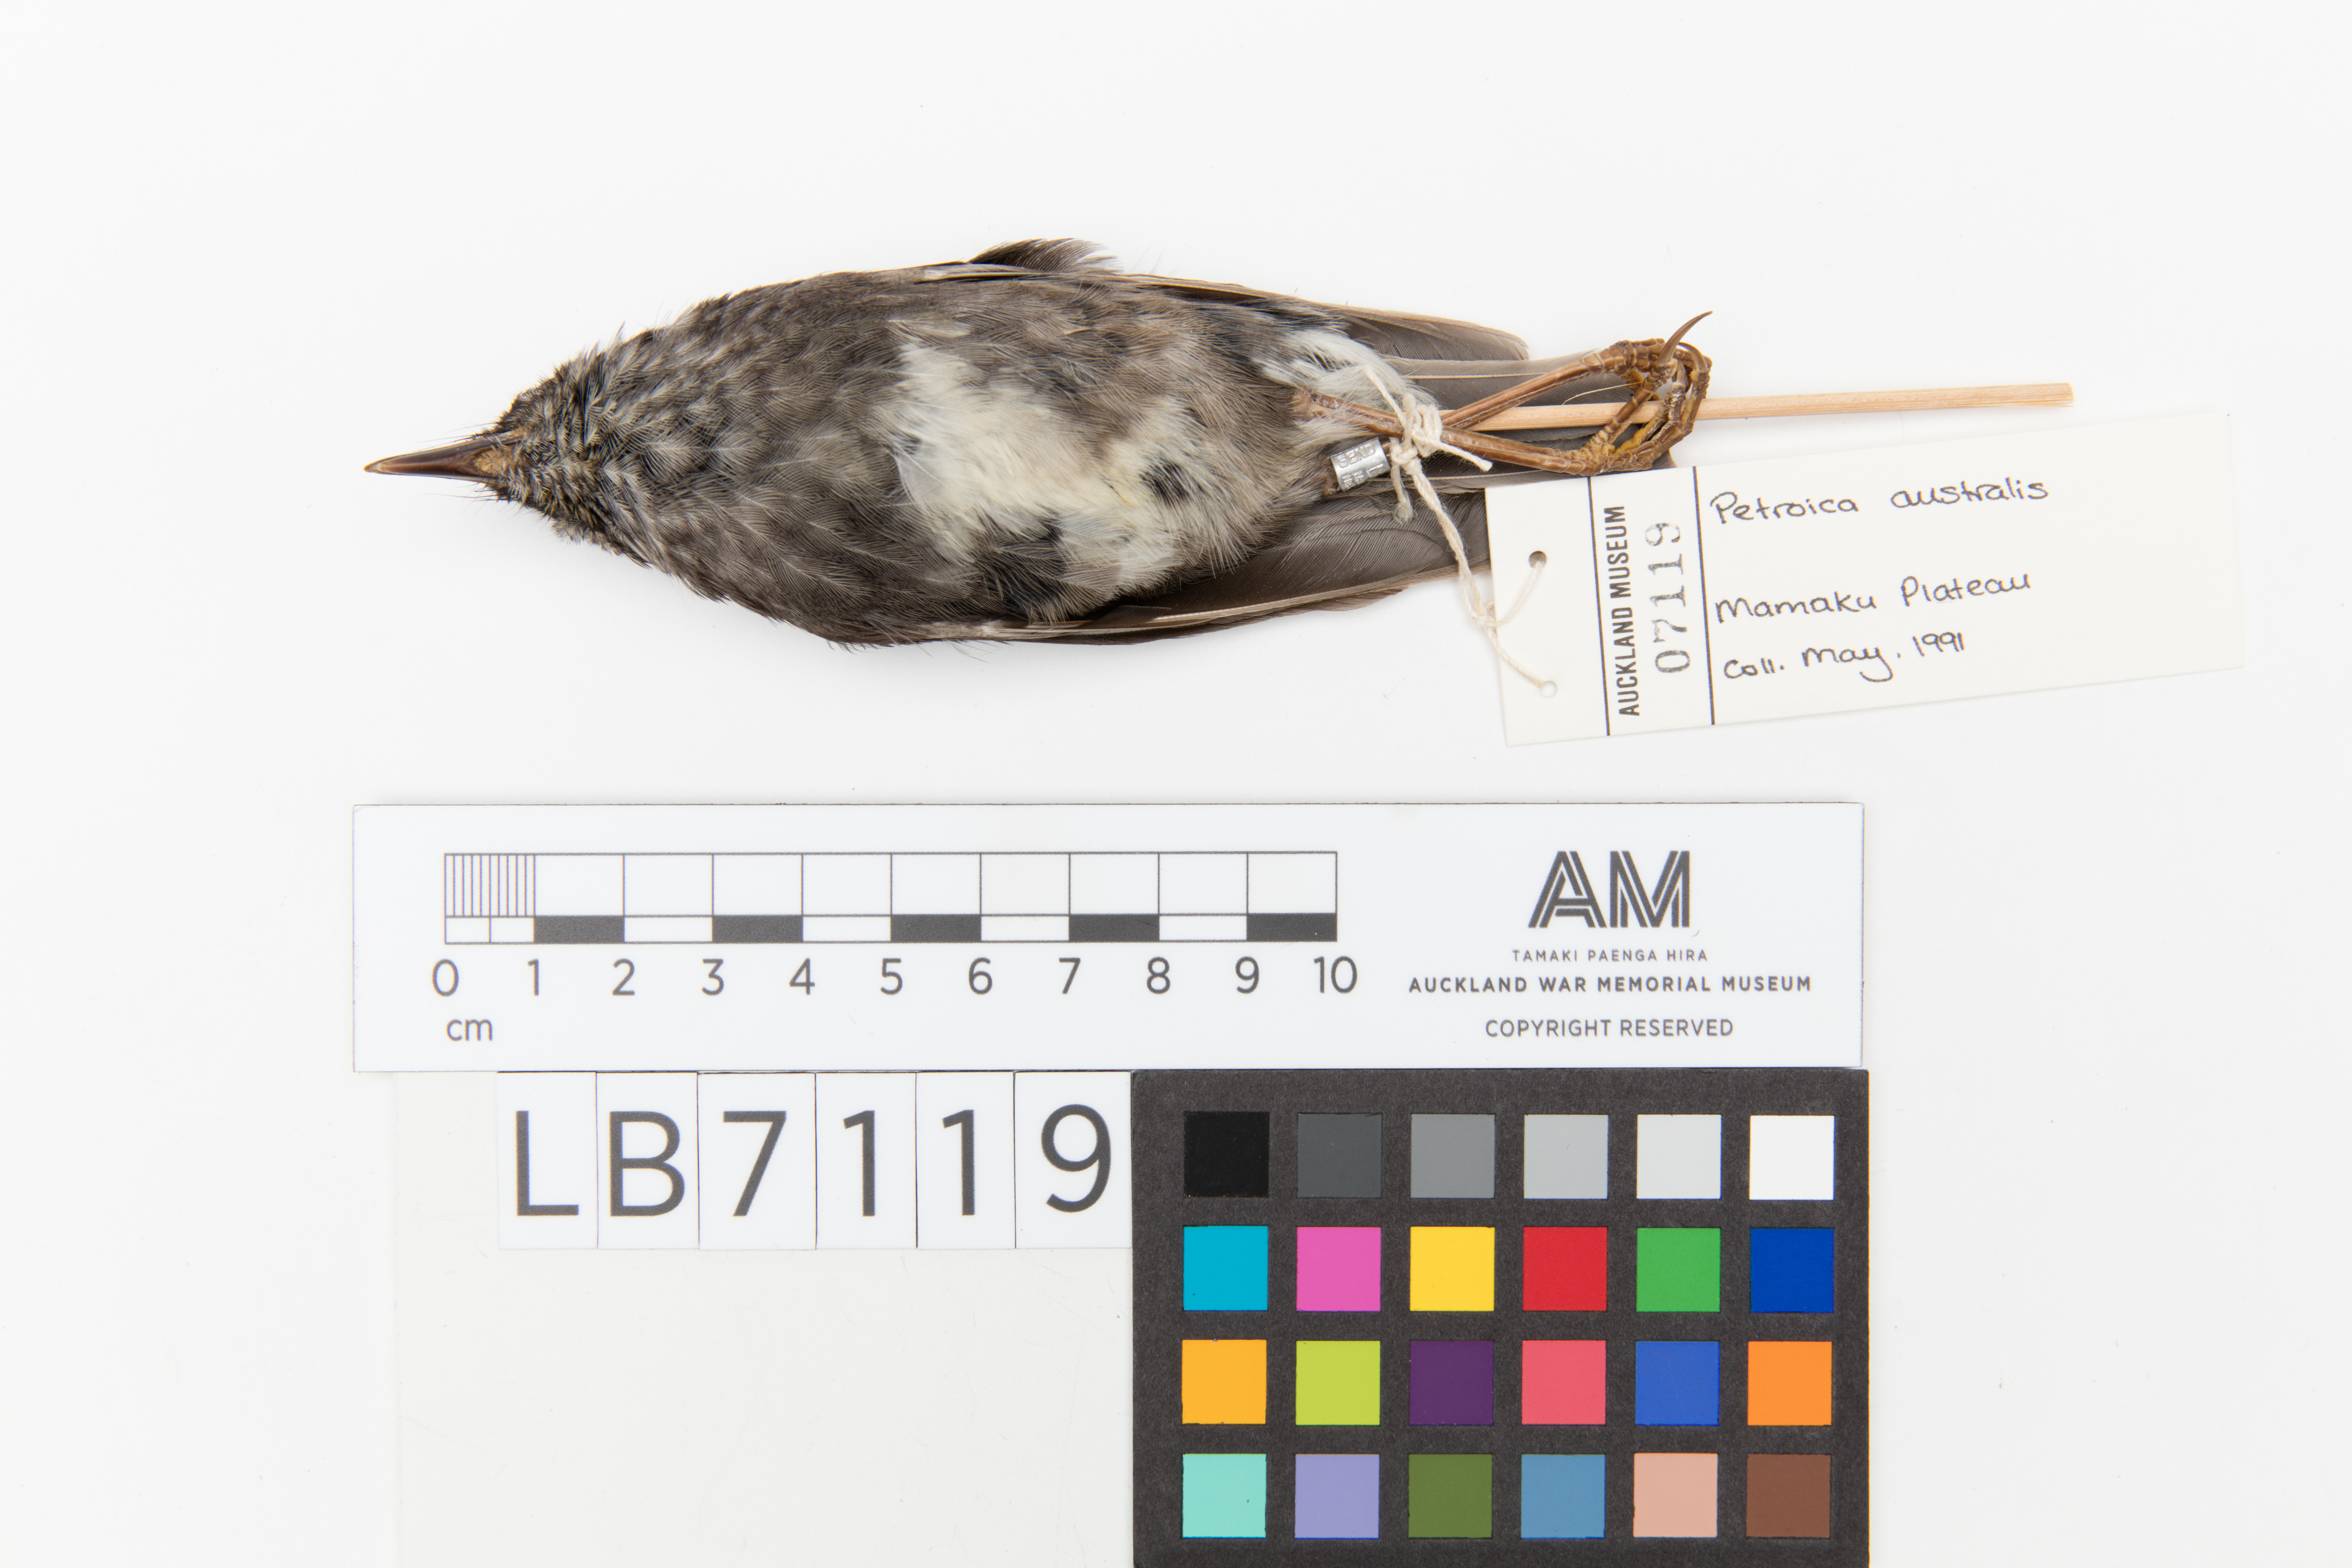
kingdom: Animalia
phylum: Chordata
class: Aves
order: Passeriformes
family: Petroicidae
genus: Petroica
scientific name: Petroica australis
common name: New zealand robin
